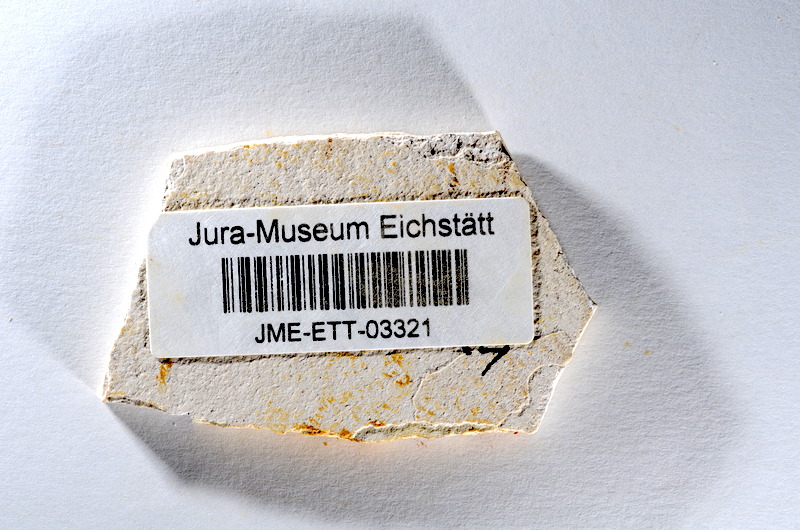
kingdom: Animalia
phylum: Chordata
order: Salmoniformes
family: Orthogonikleithridae
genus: Orthogonikleithrus
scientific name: Orthogonikleithrus hoelli
